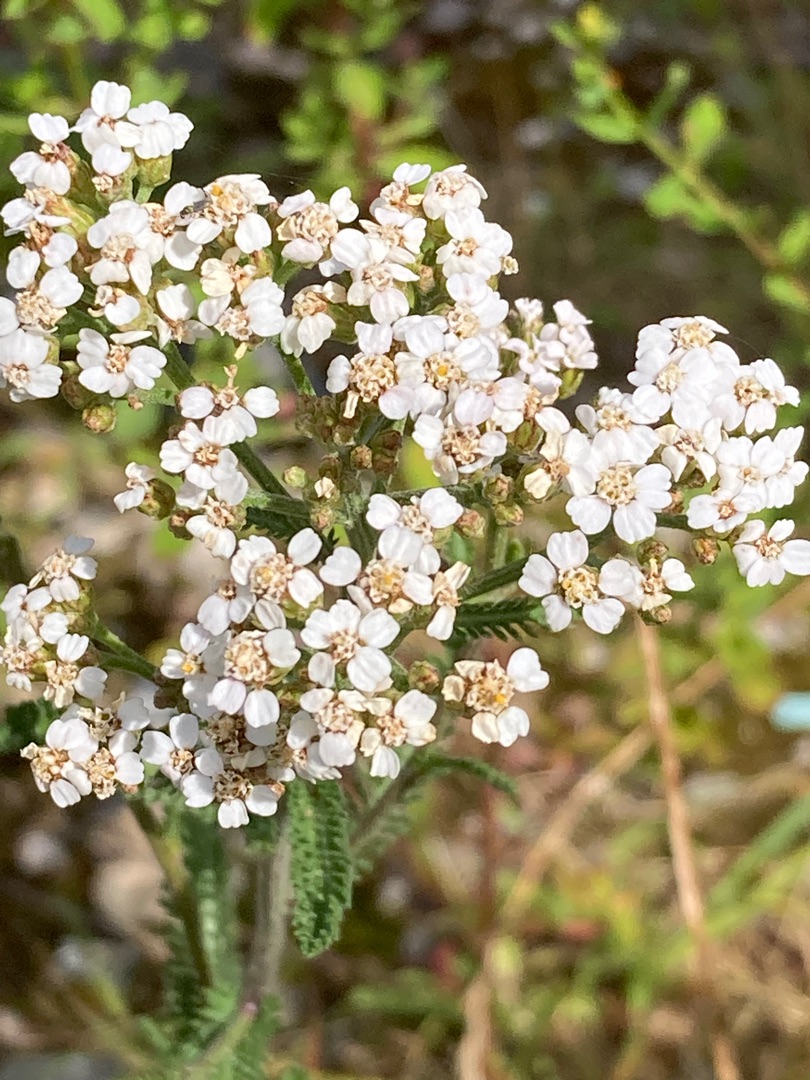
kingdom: Plantae
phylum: Tracheophyta
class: Magnoliopsida
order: Asterales
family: Asteraceae
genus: Achillea
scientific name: Achillea millefolium
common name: Almindelig røllike
